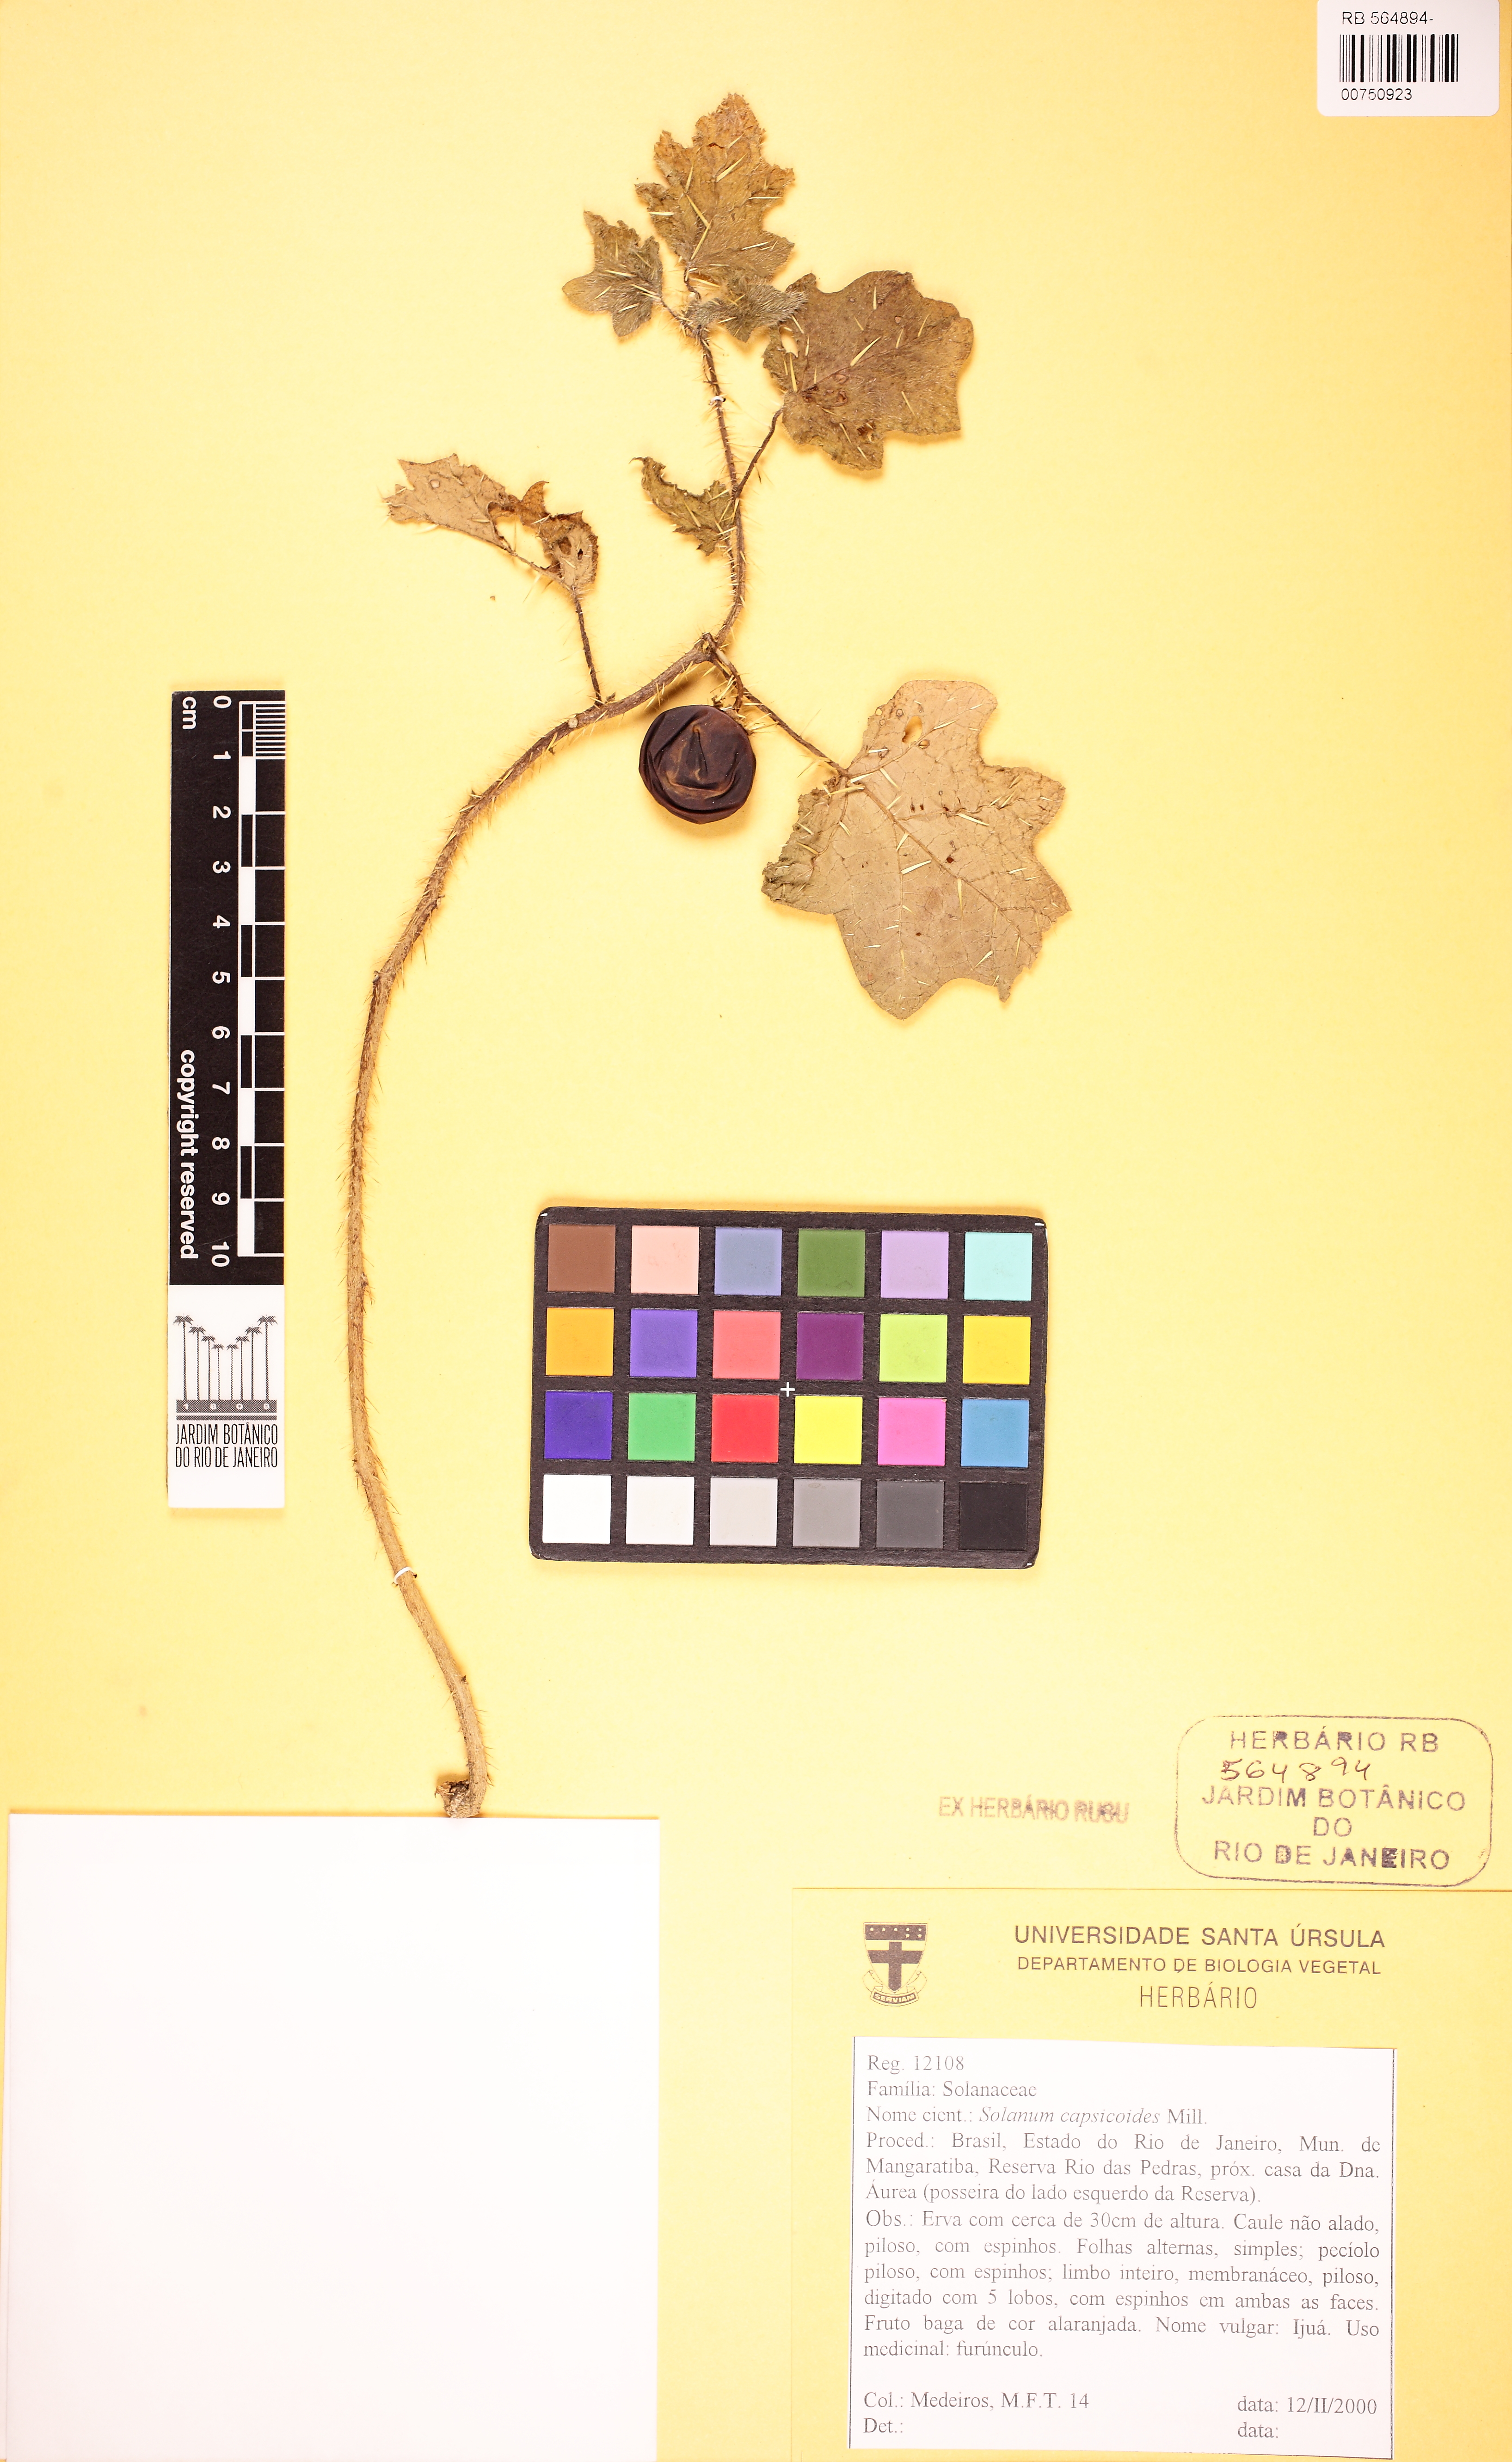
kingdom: Plantae
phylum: Tracheophyta
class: Magnoliopsida
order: Solanales
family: Solanaceae
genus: Solanum
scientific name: Solanum capsicoides
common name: Cockroach berry
